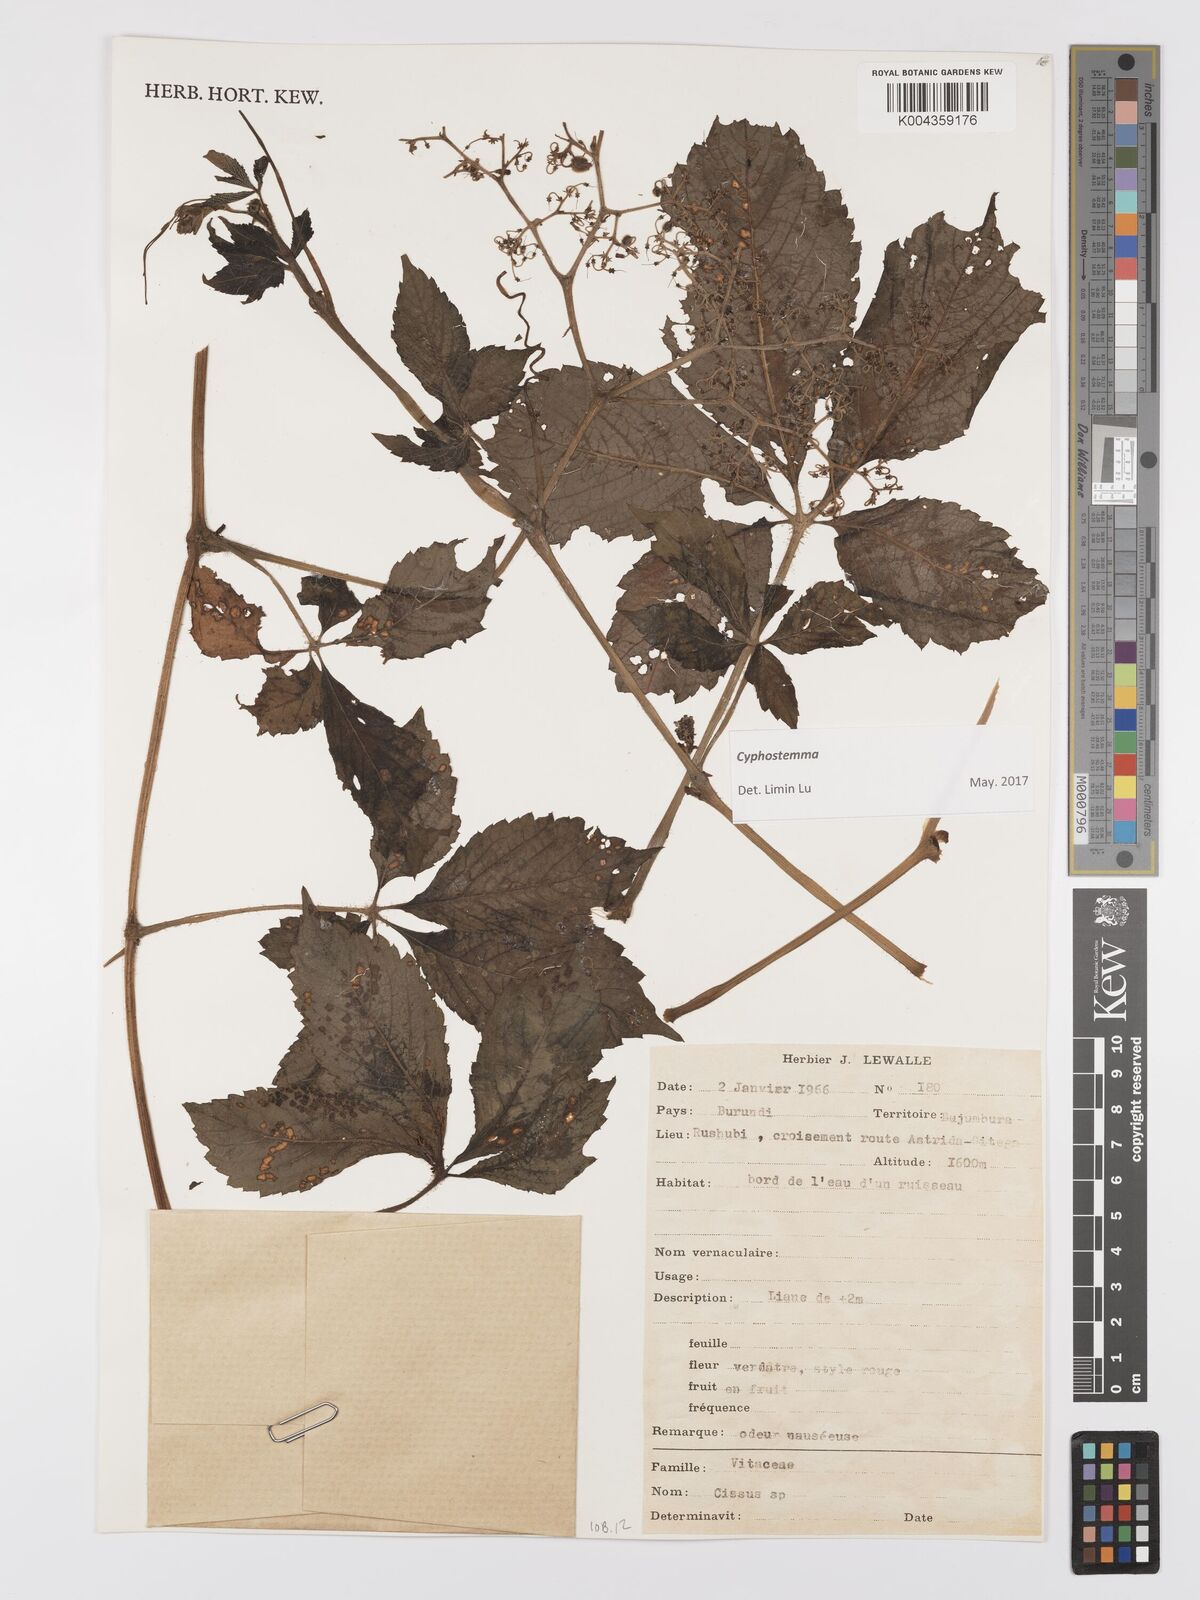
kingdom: Plantae
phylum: Tracheophyta
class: Magnoliopsida
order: Vitales
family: Vitaceae
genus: Cyphostemma
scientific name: Cyphostemma
